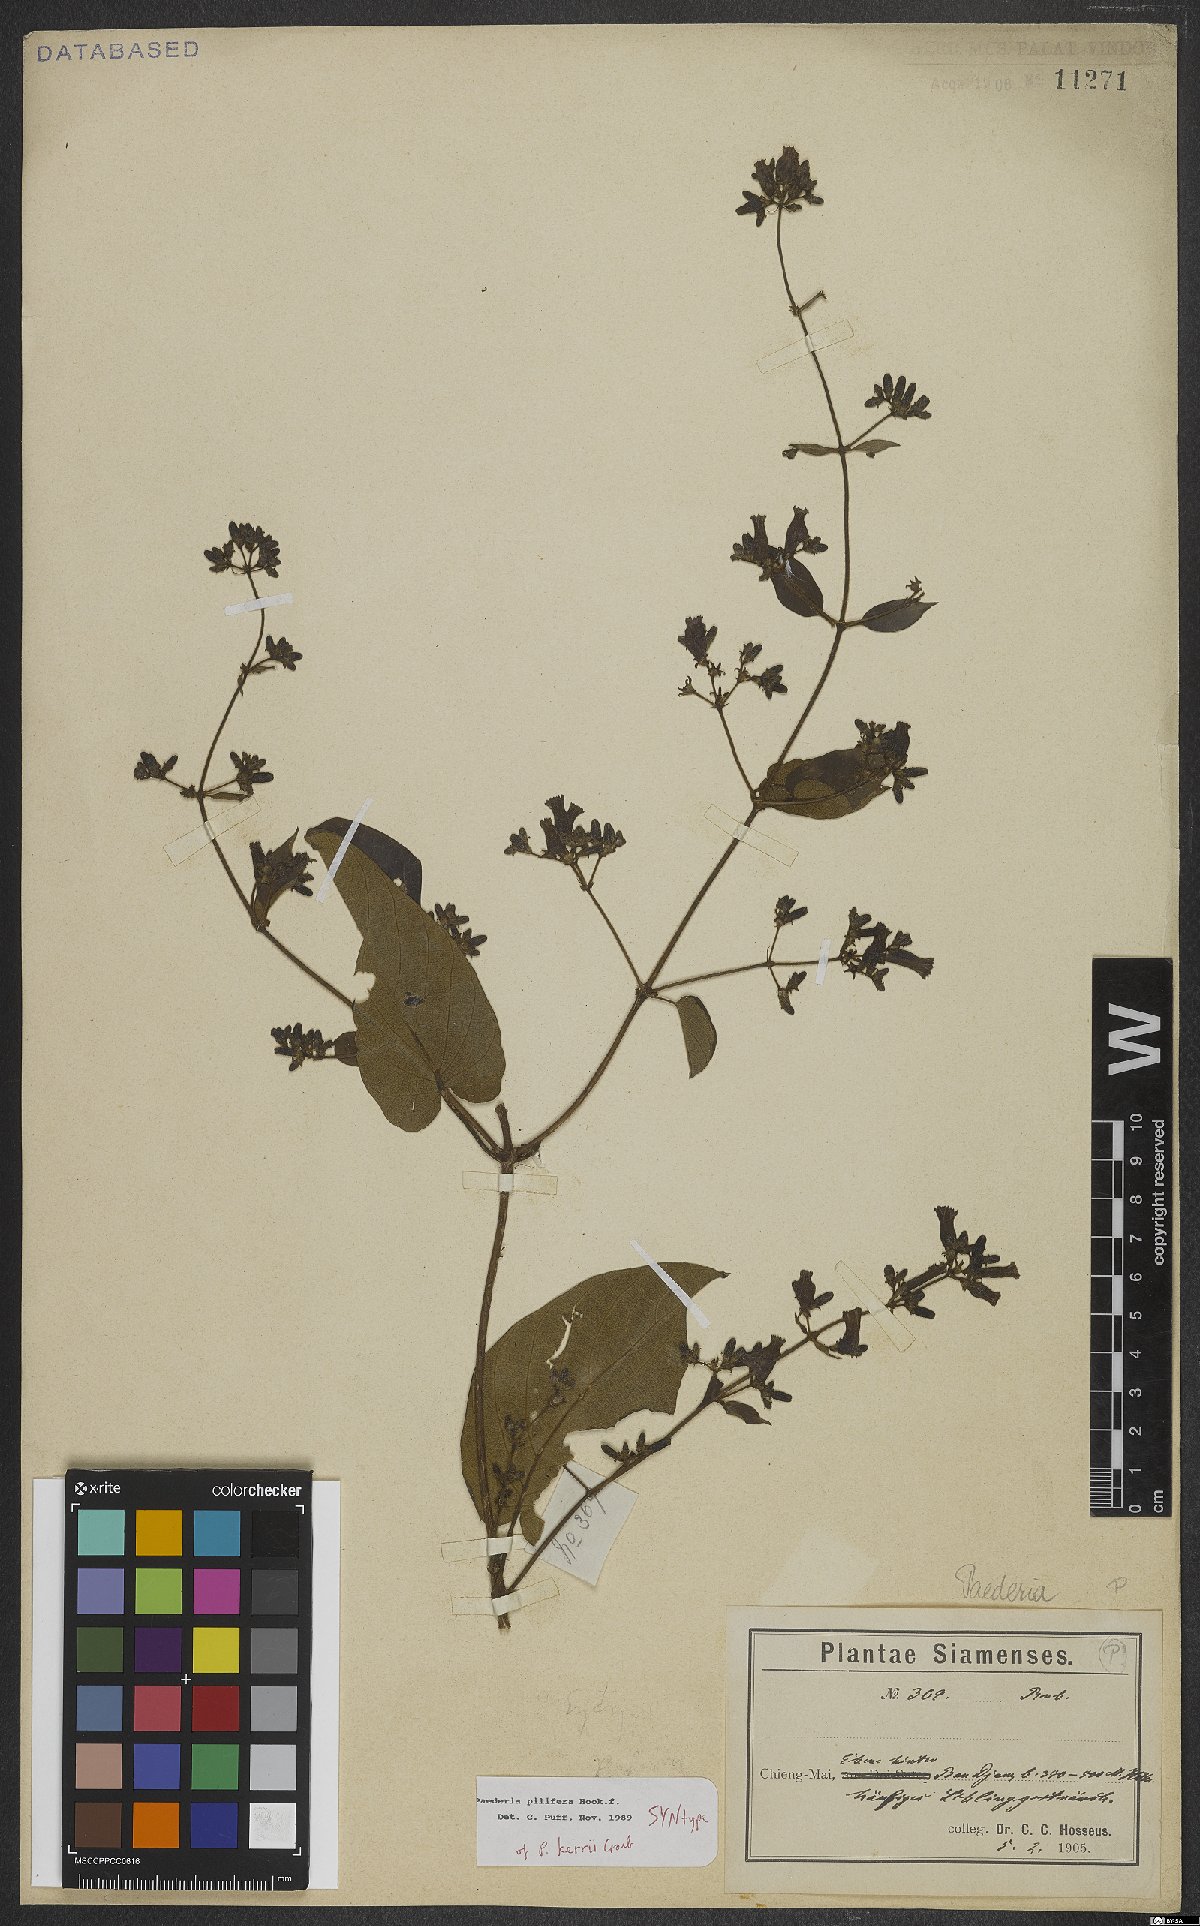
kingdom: Plantae
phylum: Tracheophyta
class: Magnoliopsida
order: Gentianales
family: Rubiaceae
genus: Paederia
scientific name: Paederia pilifera
